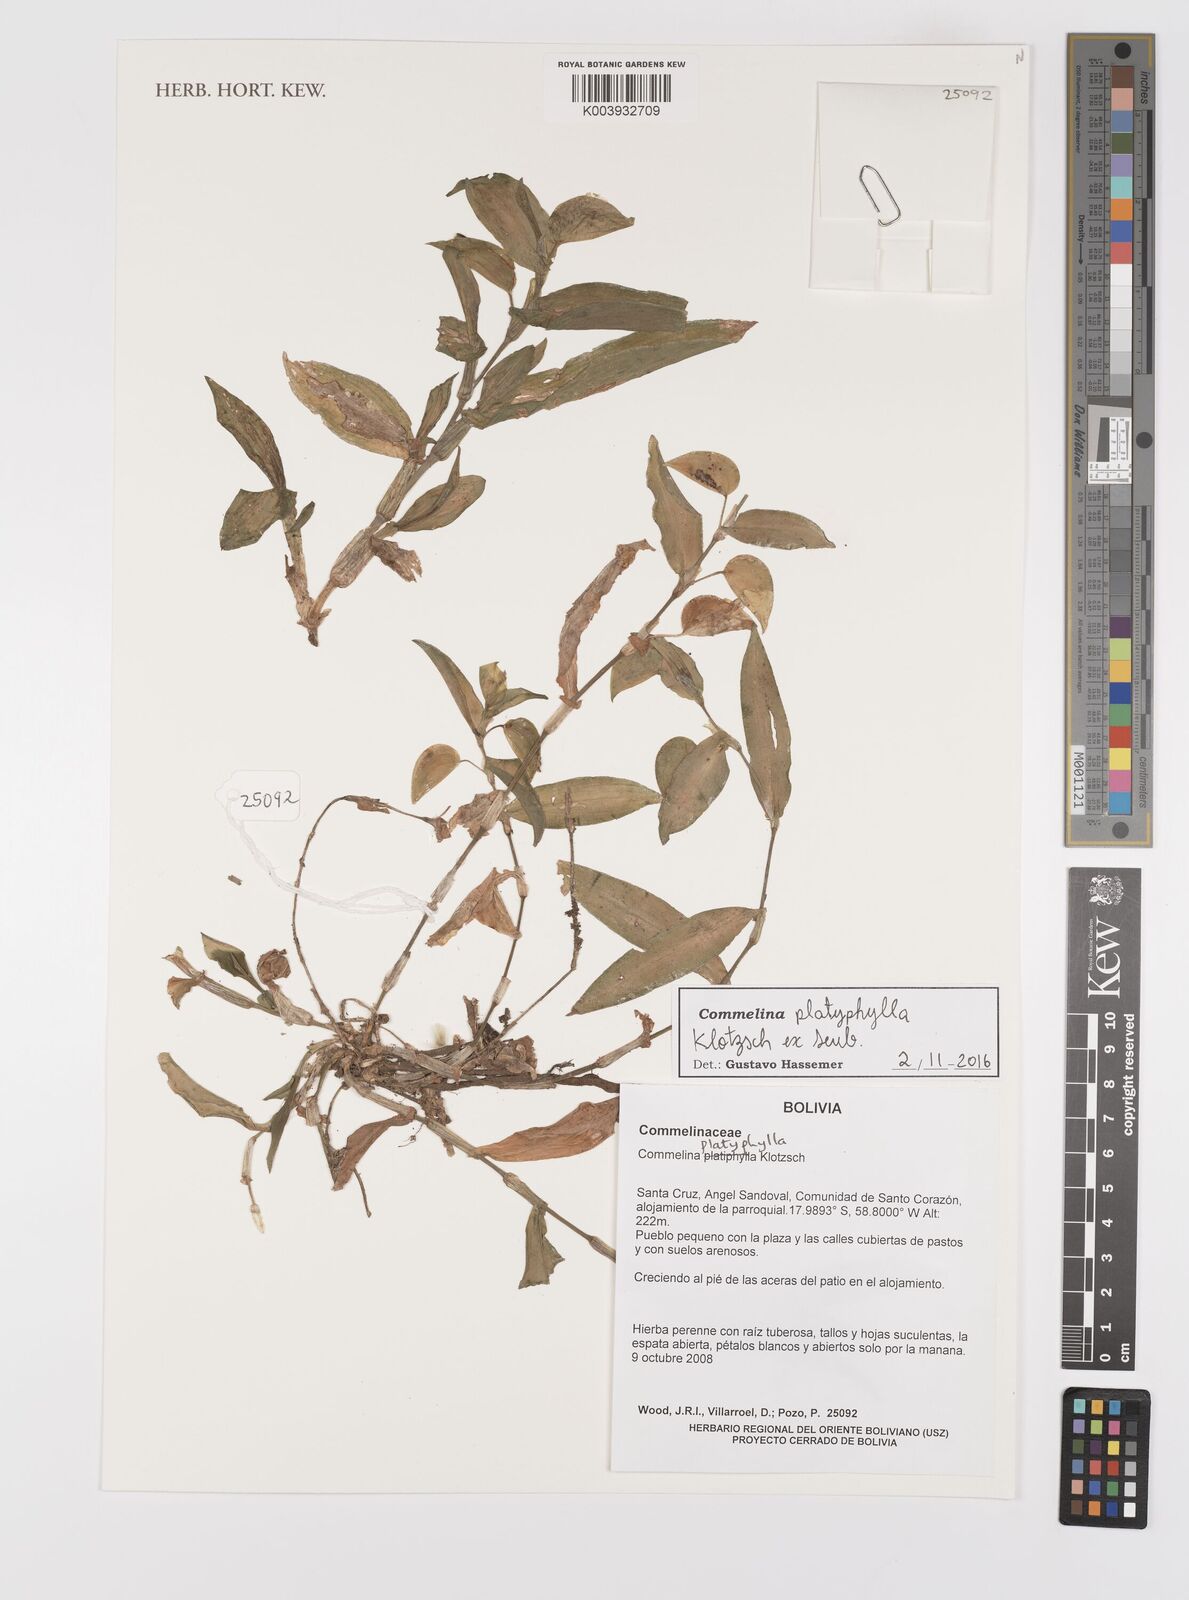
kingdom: Plantae
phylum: Tracheophyta
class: Liliopsida
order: Commelinales
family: Commelinaceae
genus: Commelina
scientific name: Commelina platyphylla
